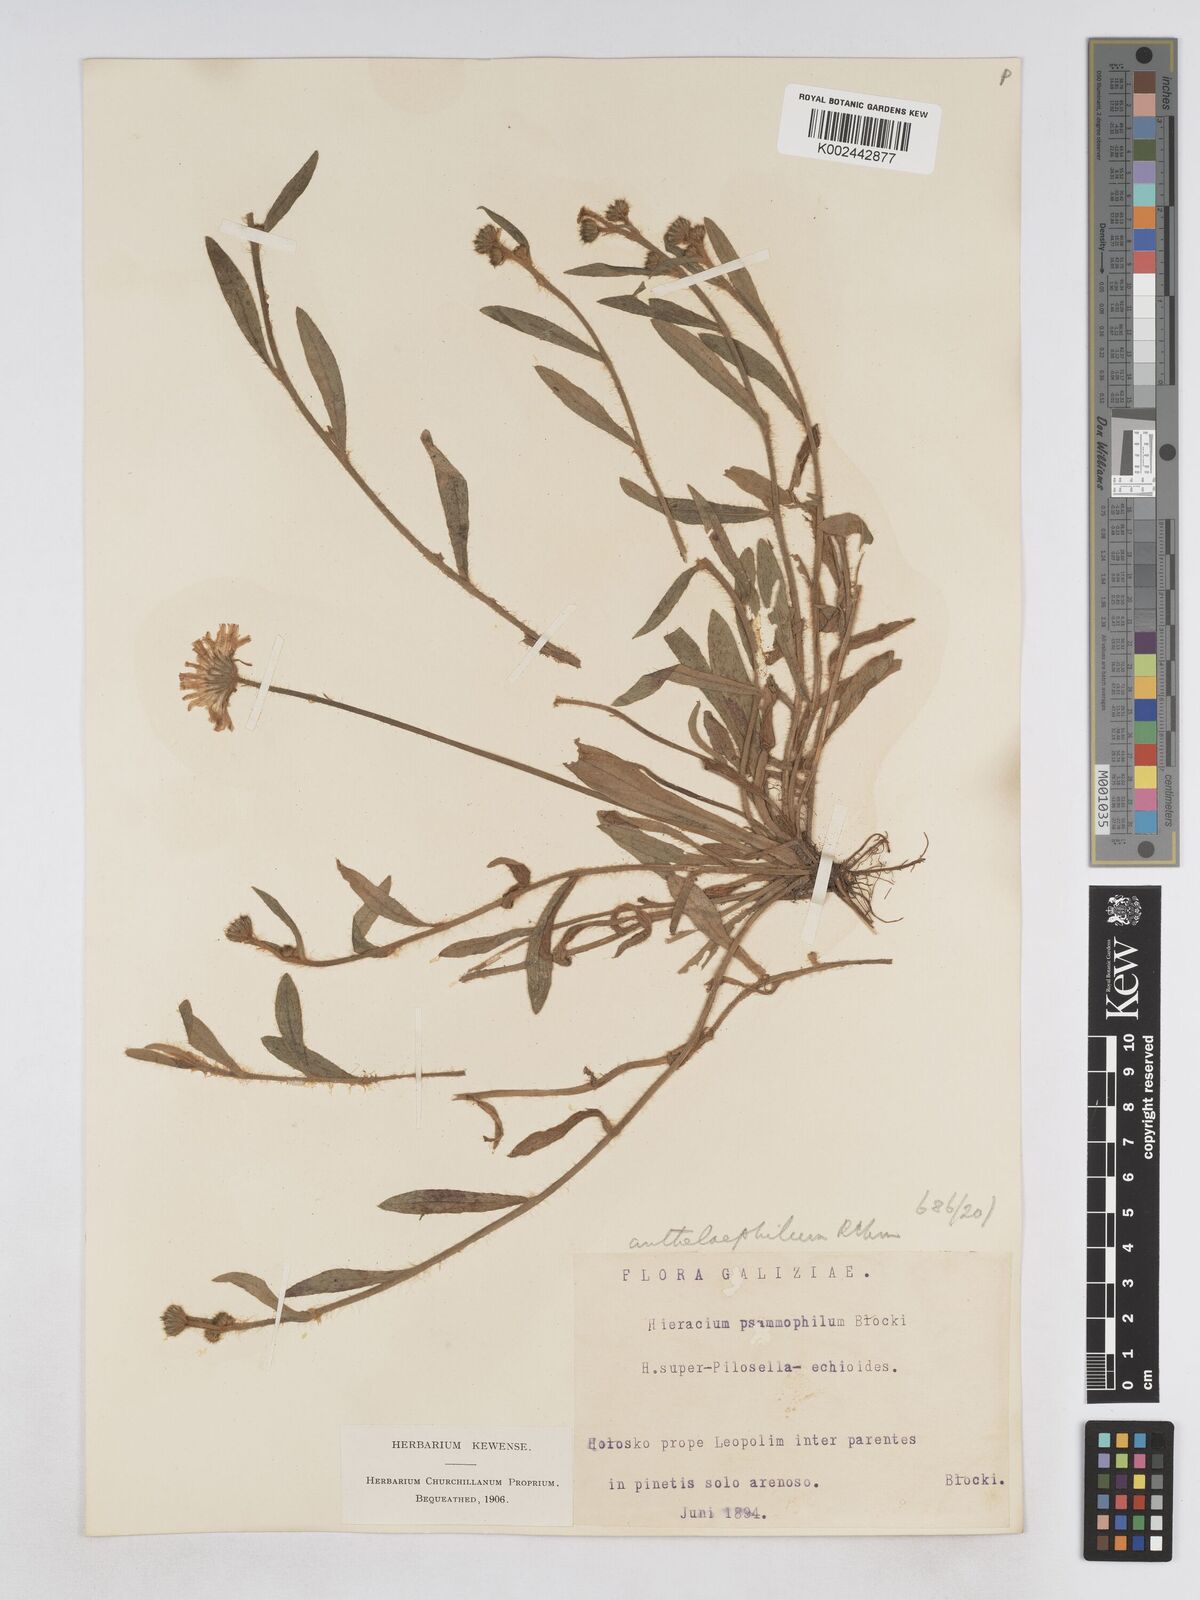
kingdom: Plantae
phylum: Tracheophyta
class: Magnoliopsida
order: Asterales
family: Asteraceae
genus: Pilosella
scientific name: Pilosella bifurca
